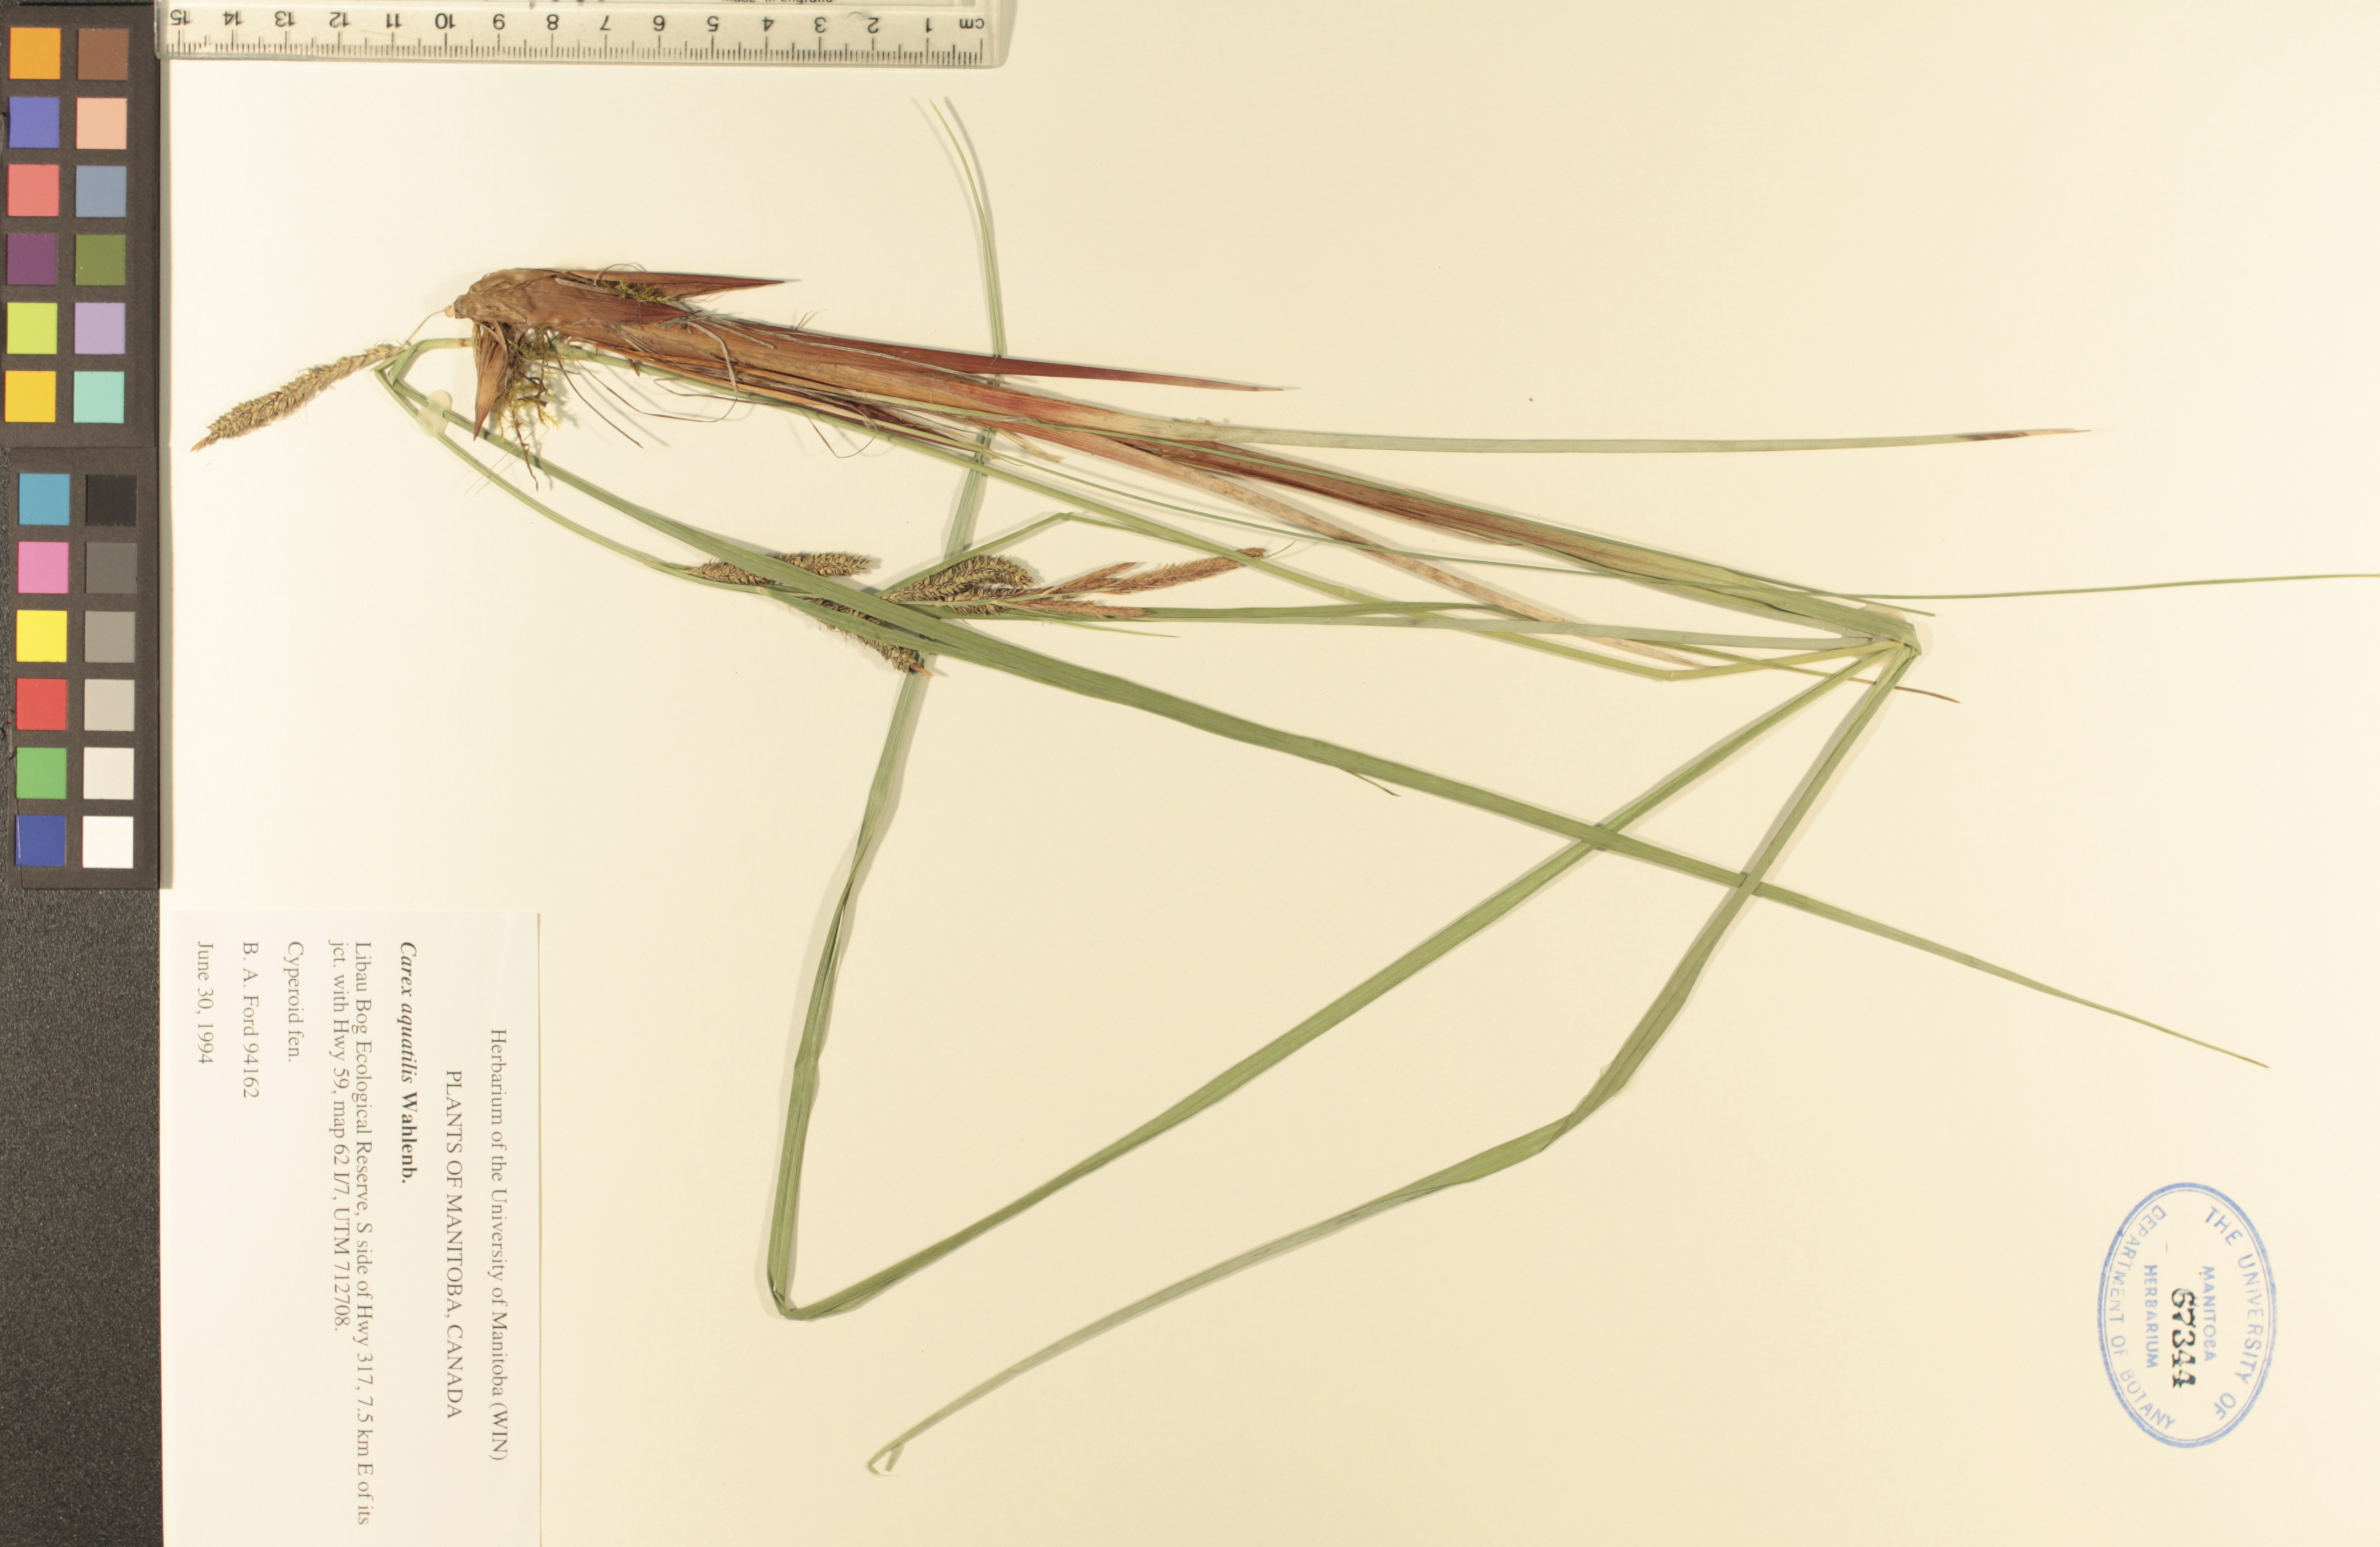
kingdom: Plantae
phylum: Tracheophyta
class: Liliopsida
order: Poales
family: Cyperaceae
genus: Carex
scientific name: Carex aquatilis
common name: Water sedge
